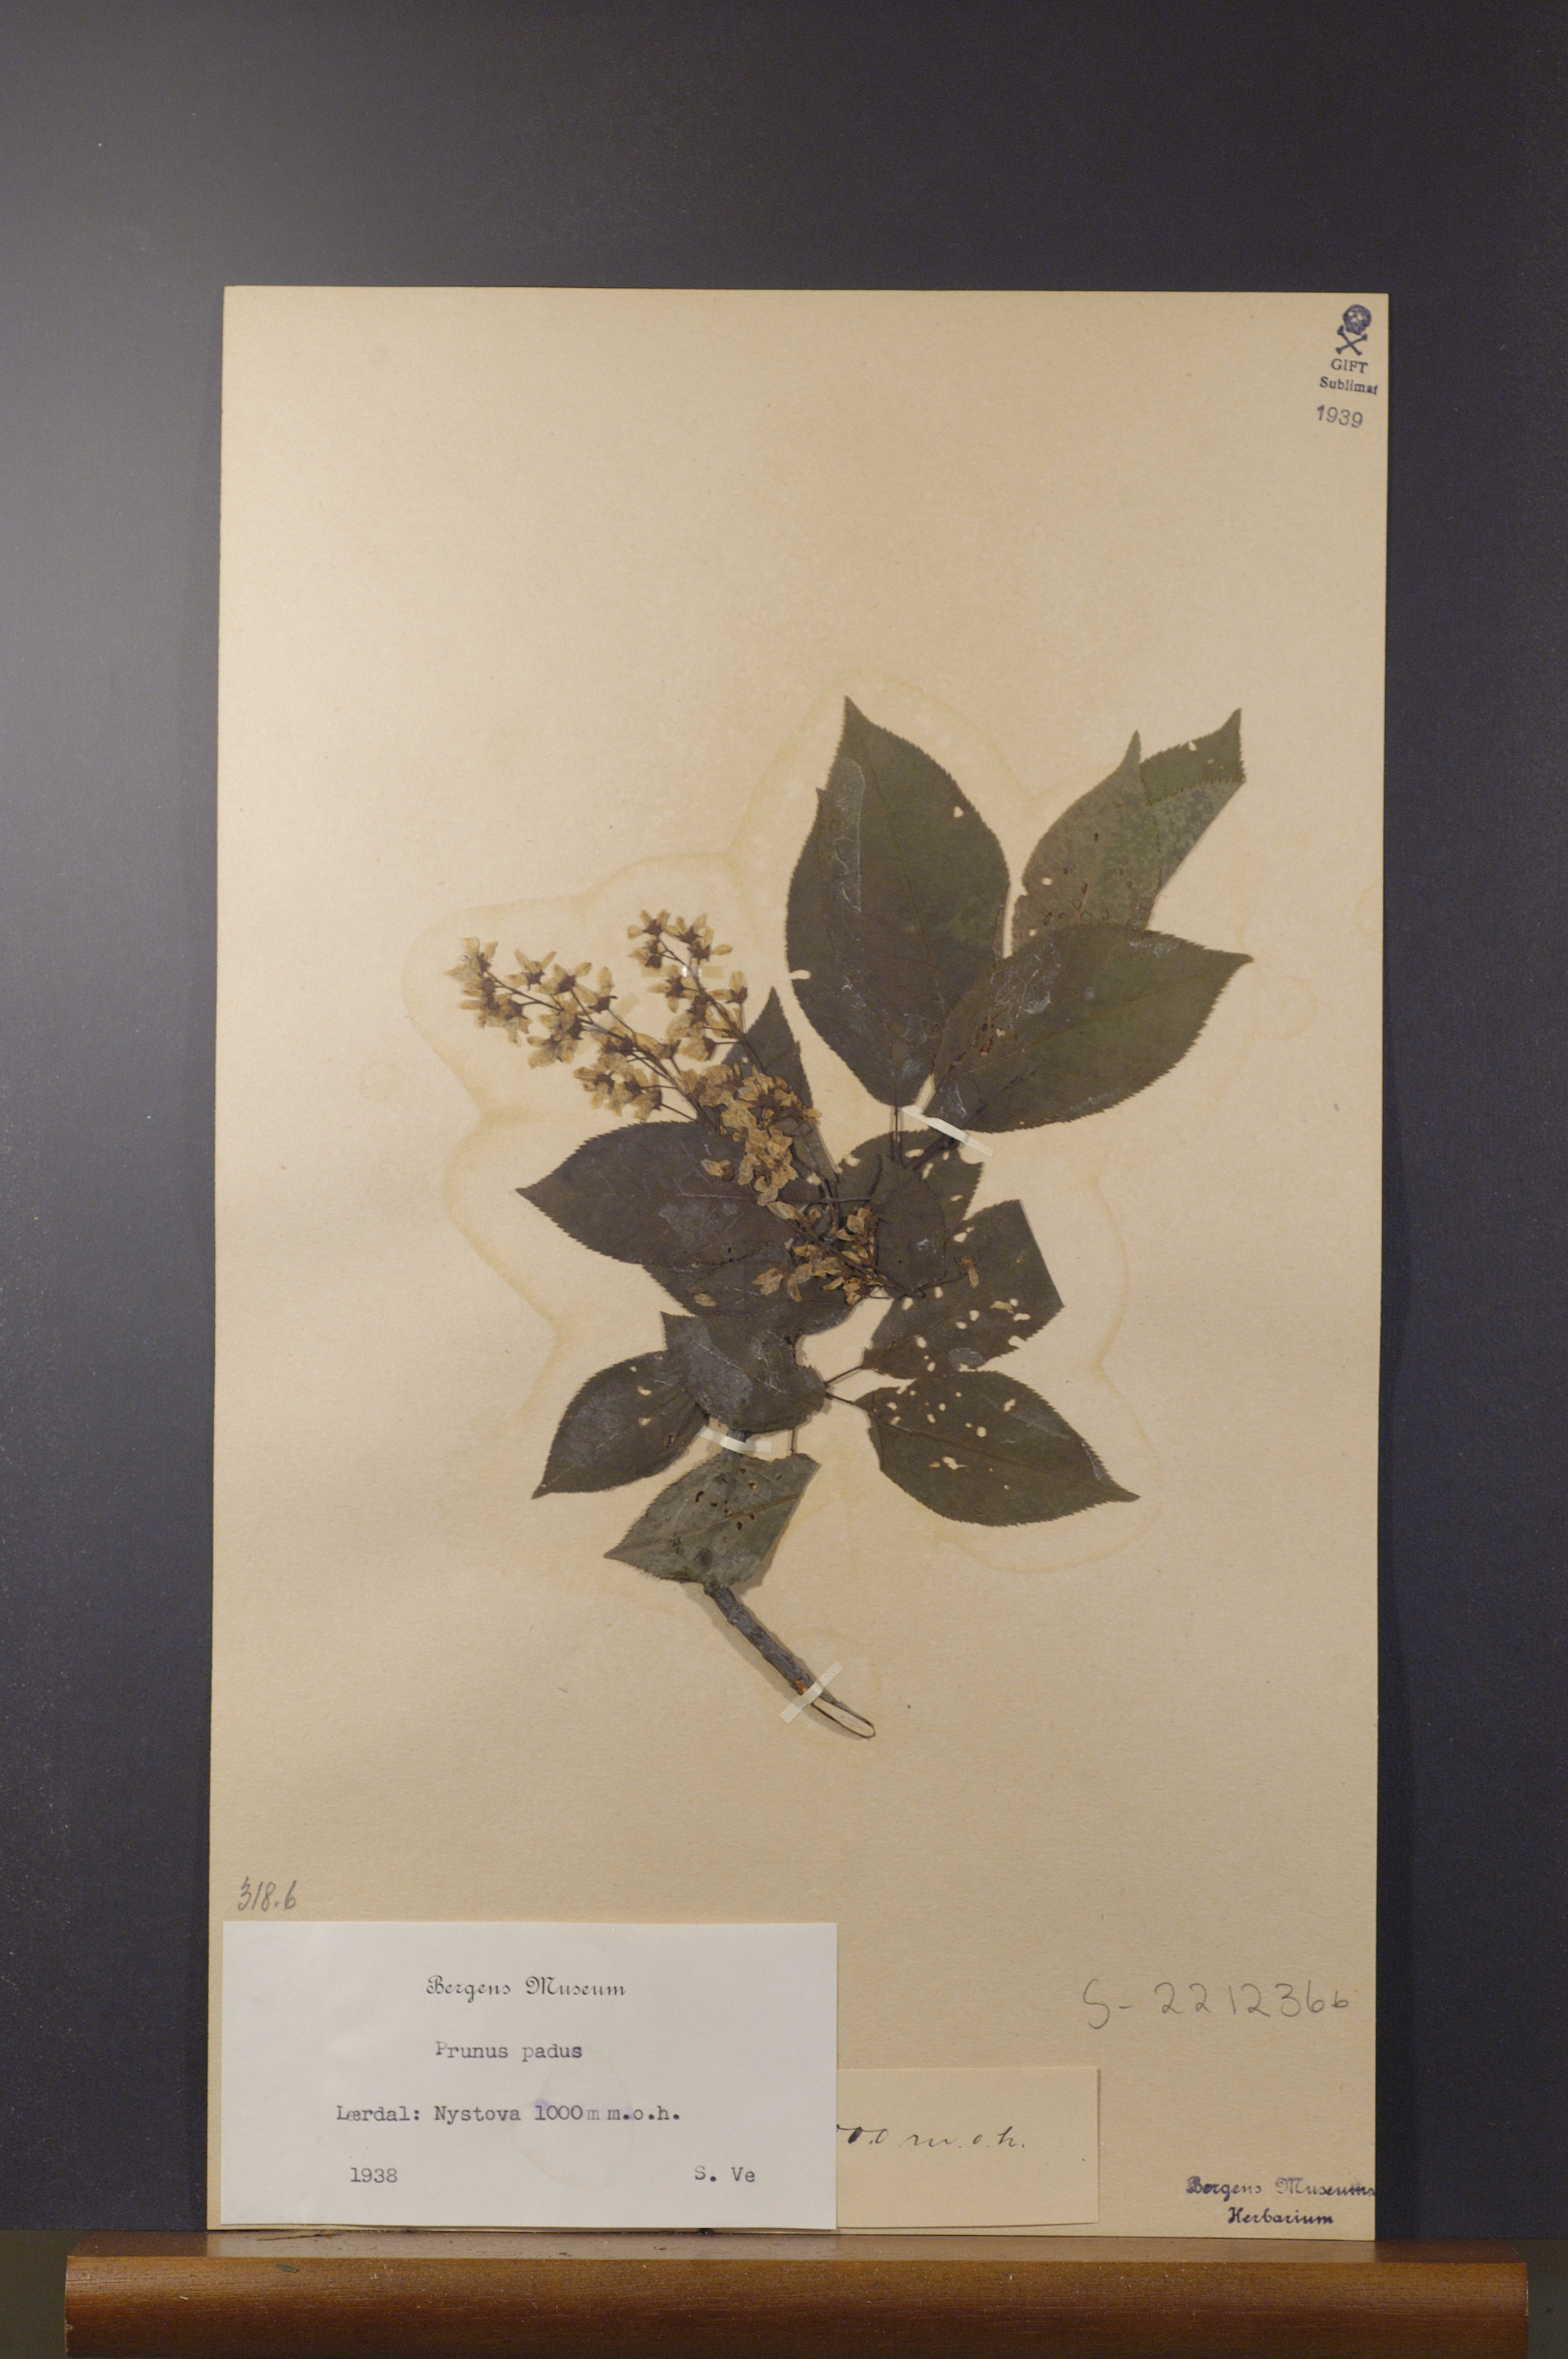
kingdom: Plantae
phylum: Tracheophyta
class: Magnoliopsida
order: Rosales
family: Rosaceae
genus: Prunus
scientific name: Prunus padus
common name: Bird cherry
